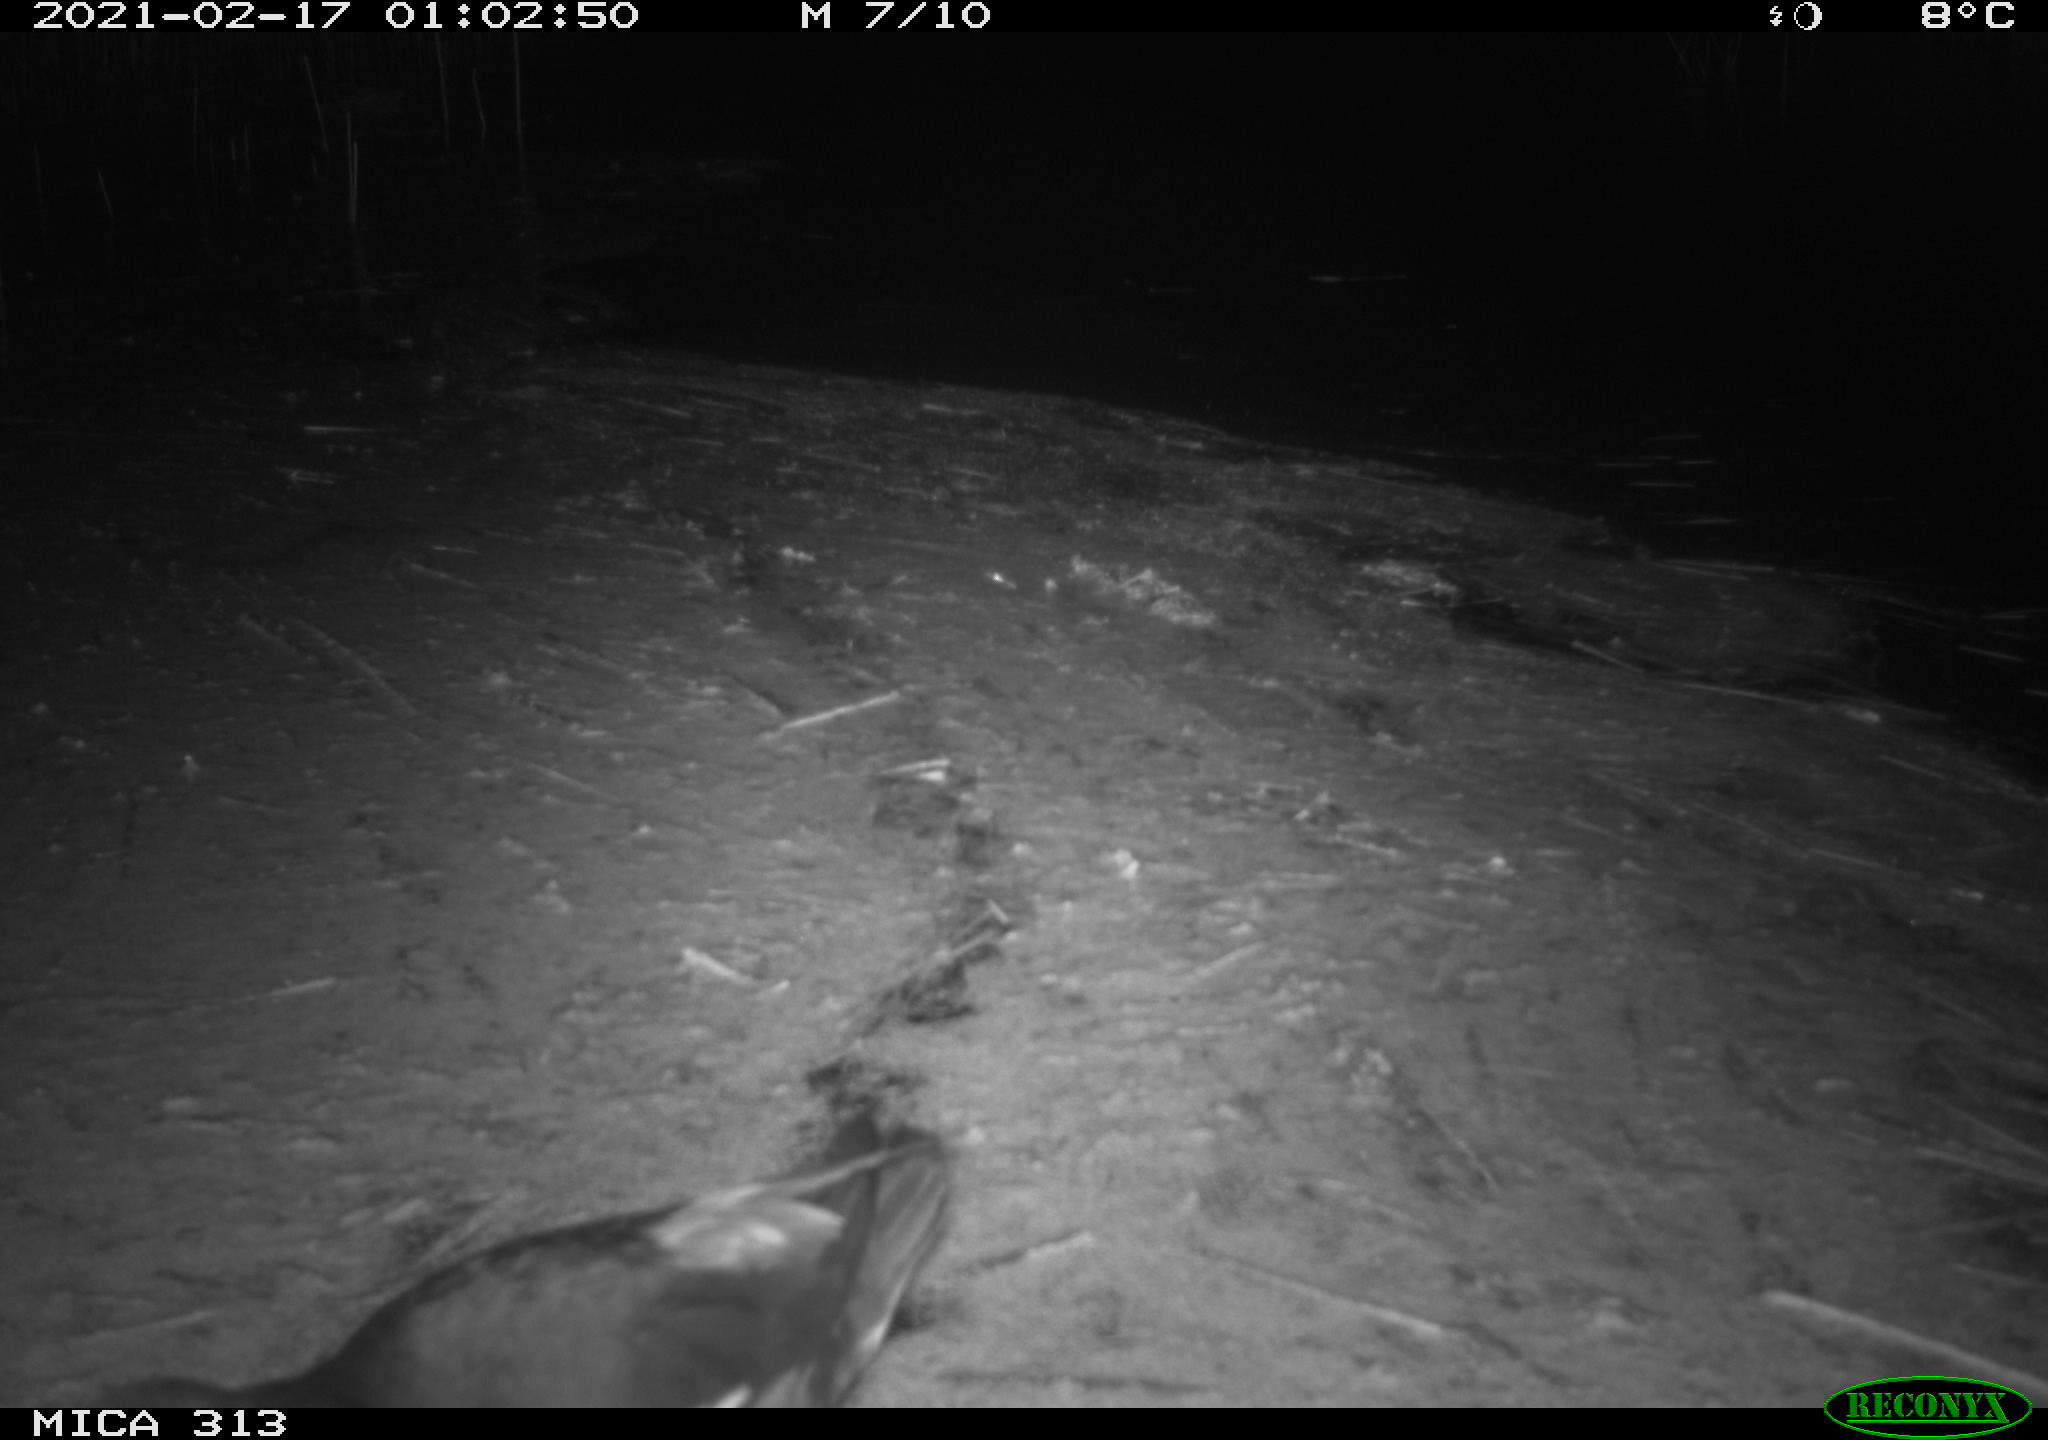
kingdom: Animalia
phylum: Chordata
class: Aves
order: Gruiformes
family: Rallidae
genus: Gallinula
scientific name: Gallinula chloropus
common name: Common moorhen
